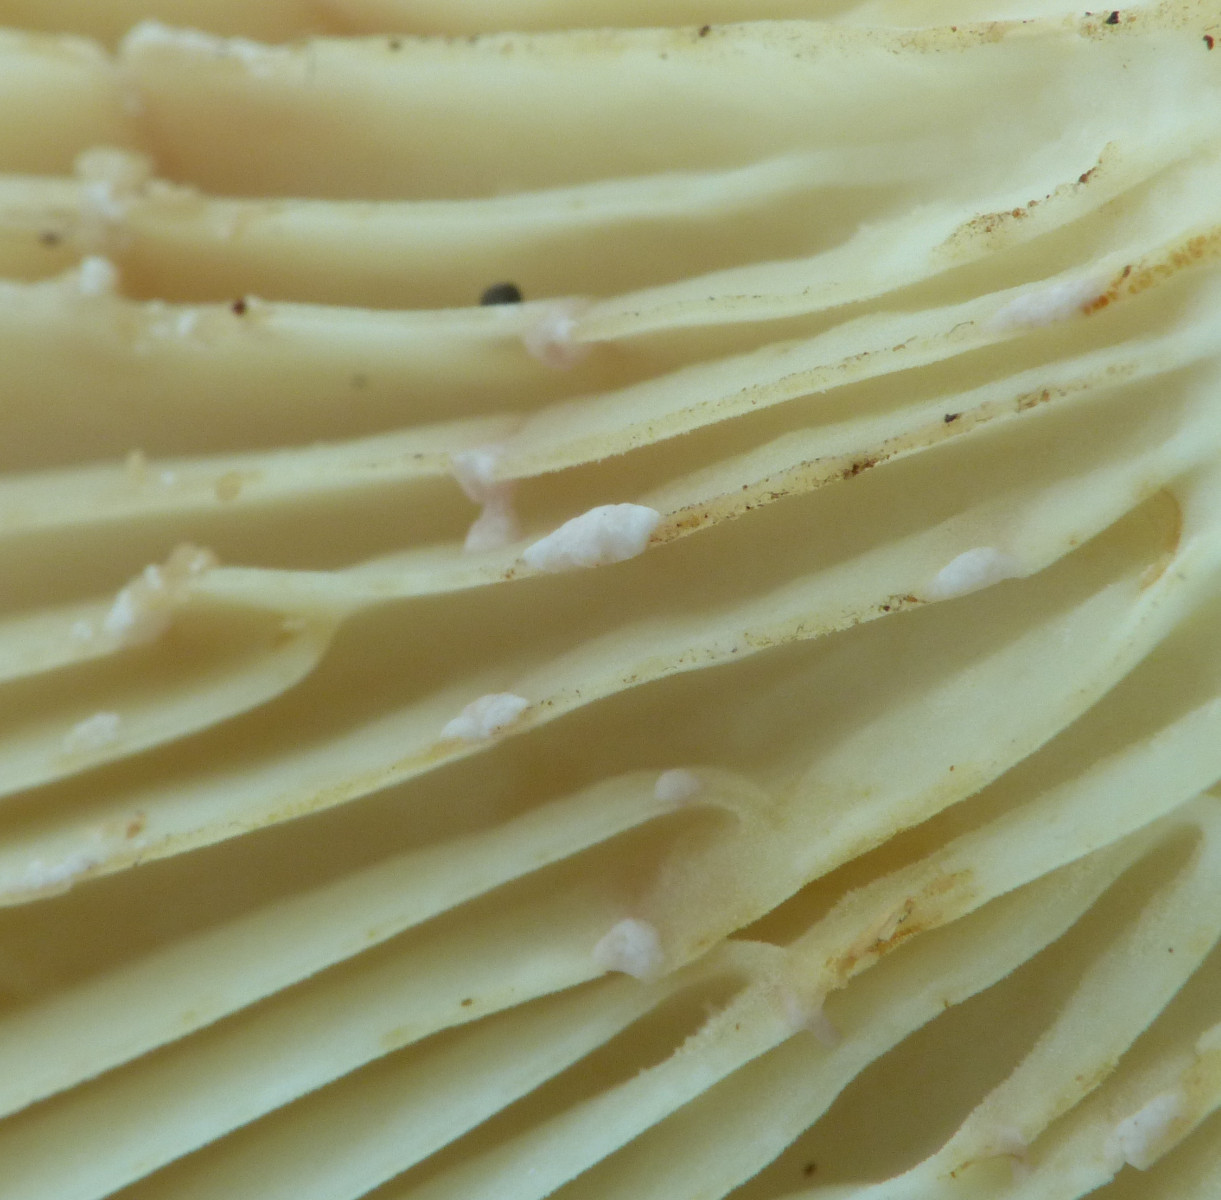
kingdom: Fungi
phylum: Basidiomycota
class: Agaricomycetes
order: Russulales
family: Russulaceae
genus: Lactifluus
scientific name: Lactifluus vellereus
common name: hvidfiltet mælkehat
